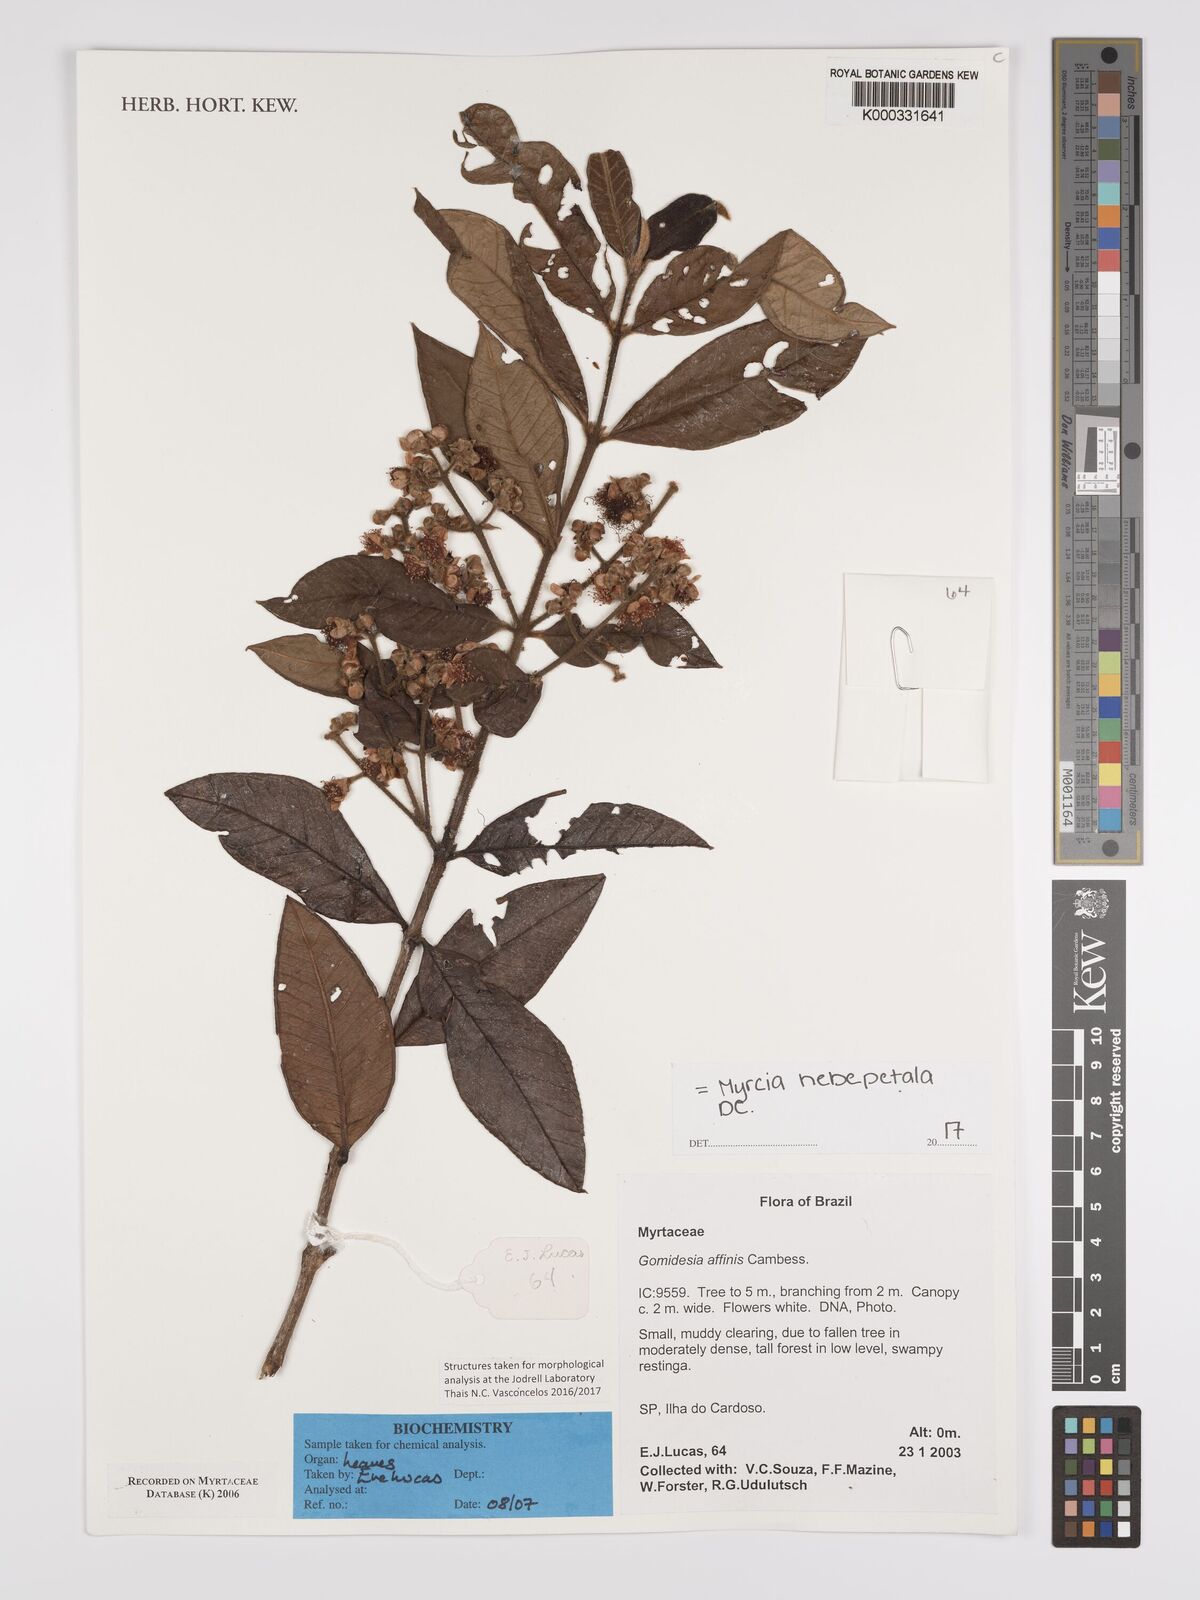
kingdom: Plantae
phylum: Tracheophyta
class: Magnoliopsida
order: Myrtales
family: Myrtaceae
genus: Myrcia
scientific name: Myrcia hebepetala
